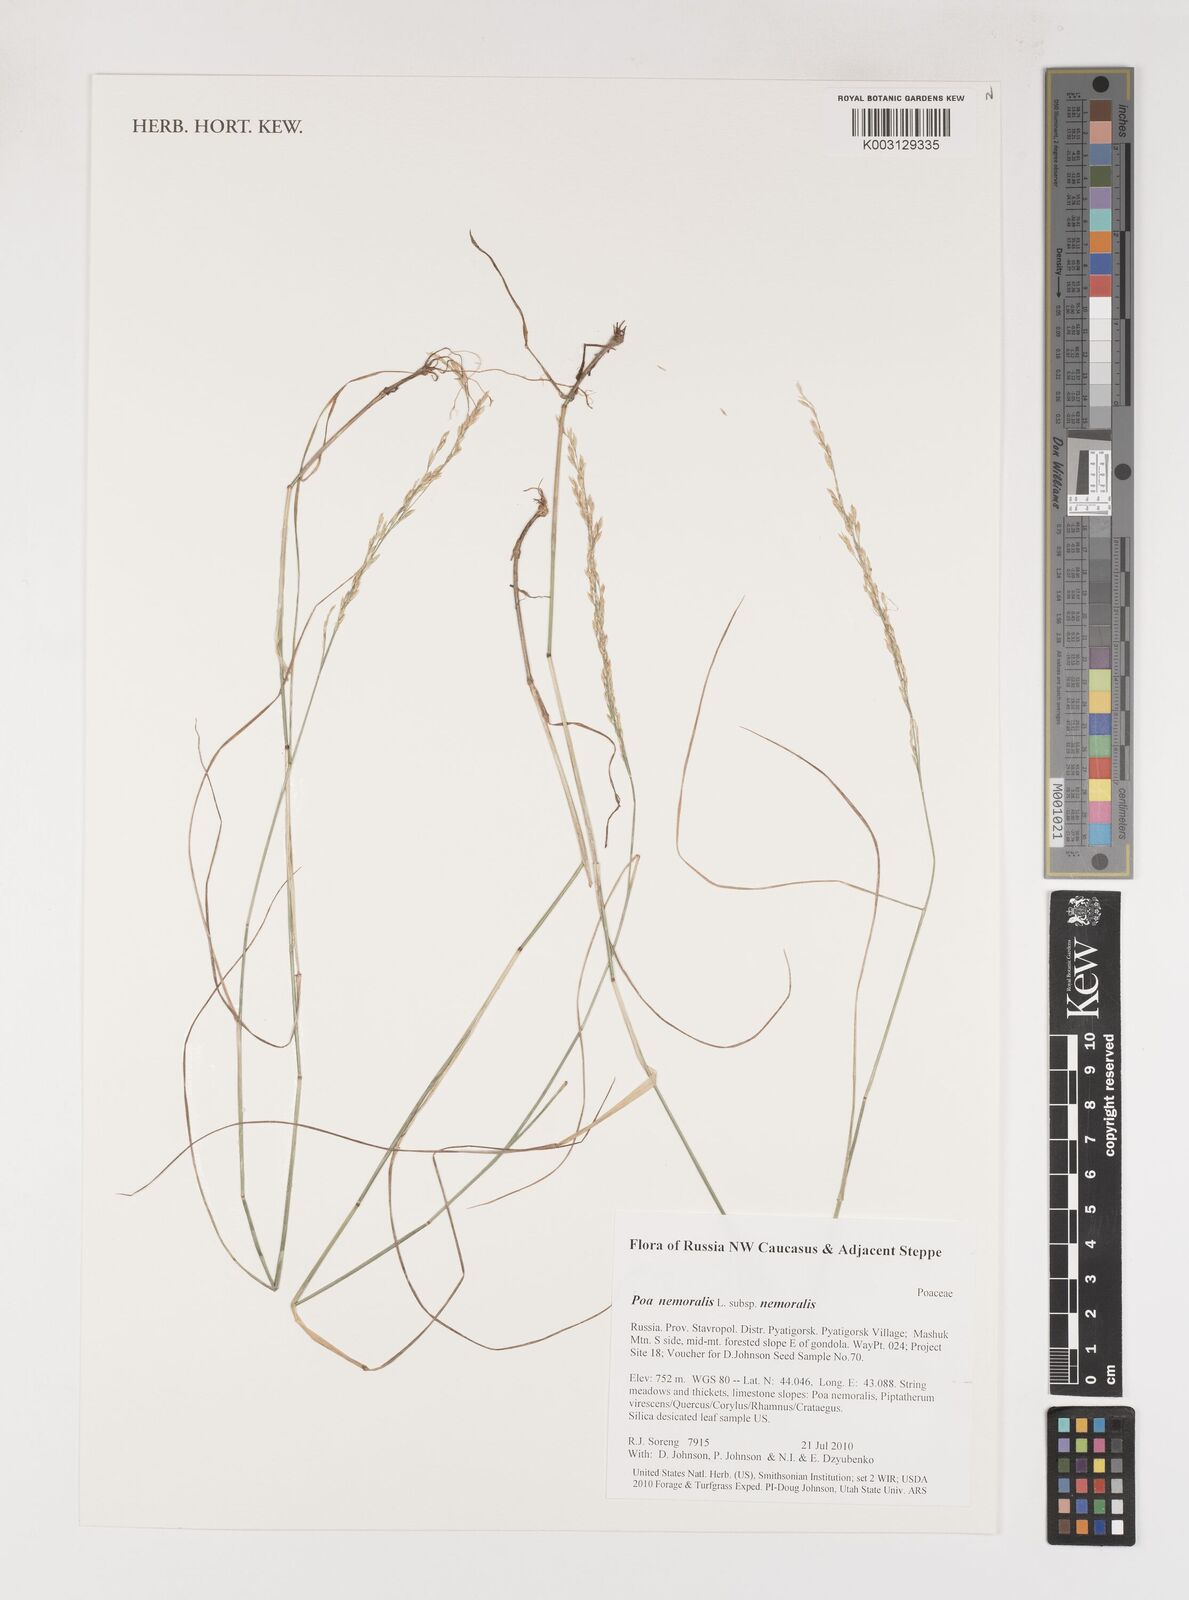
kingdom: Plantae
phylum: Tracheophyta
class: Liliopsida
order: Poales
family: Poaceae
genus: Poa
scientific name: Poa nemoralis
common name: Wood bluegrass
